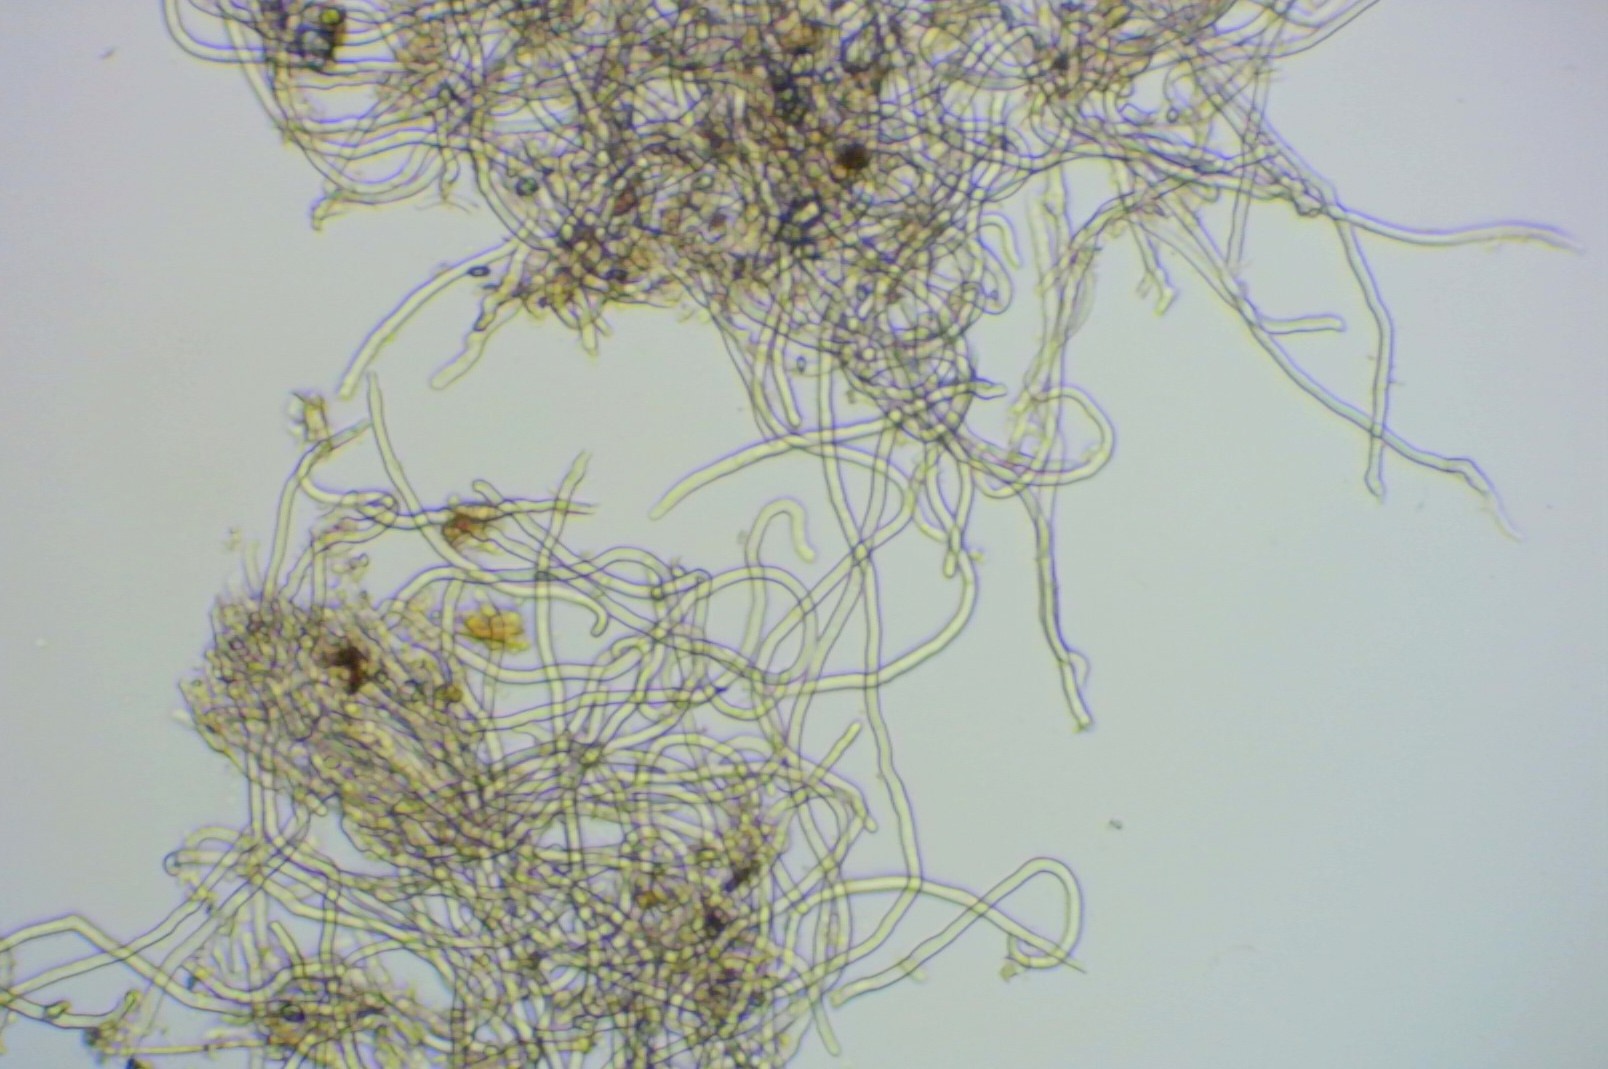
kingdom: Fungi
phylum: Ascomycota
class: Pezizomycetes
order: Pezizales
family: Sarcoscyphaceae
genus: Sarcoscypha
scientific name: Sarcoscypha austriaca
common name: krølhåret pragtbæger
